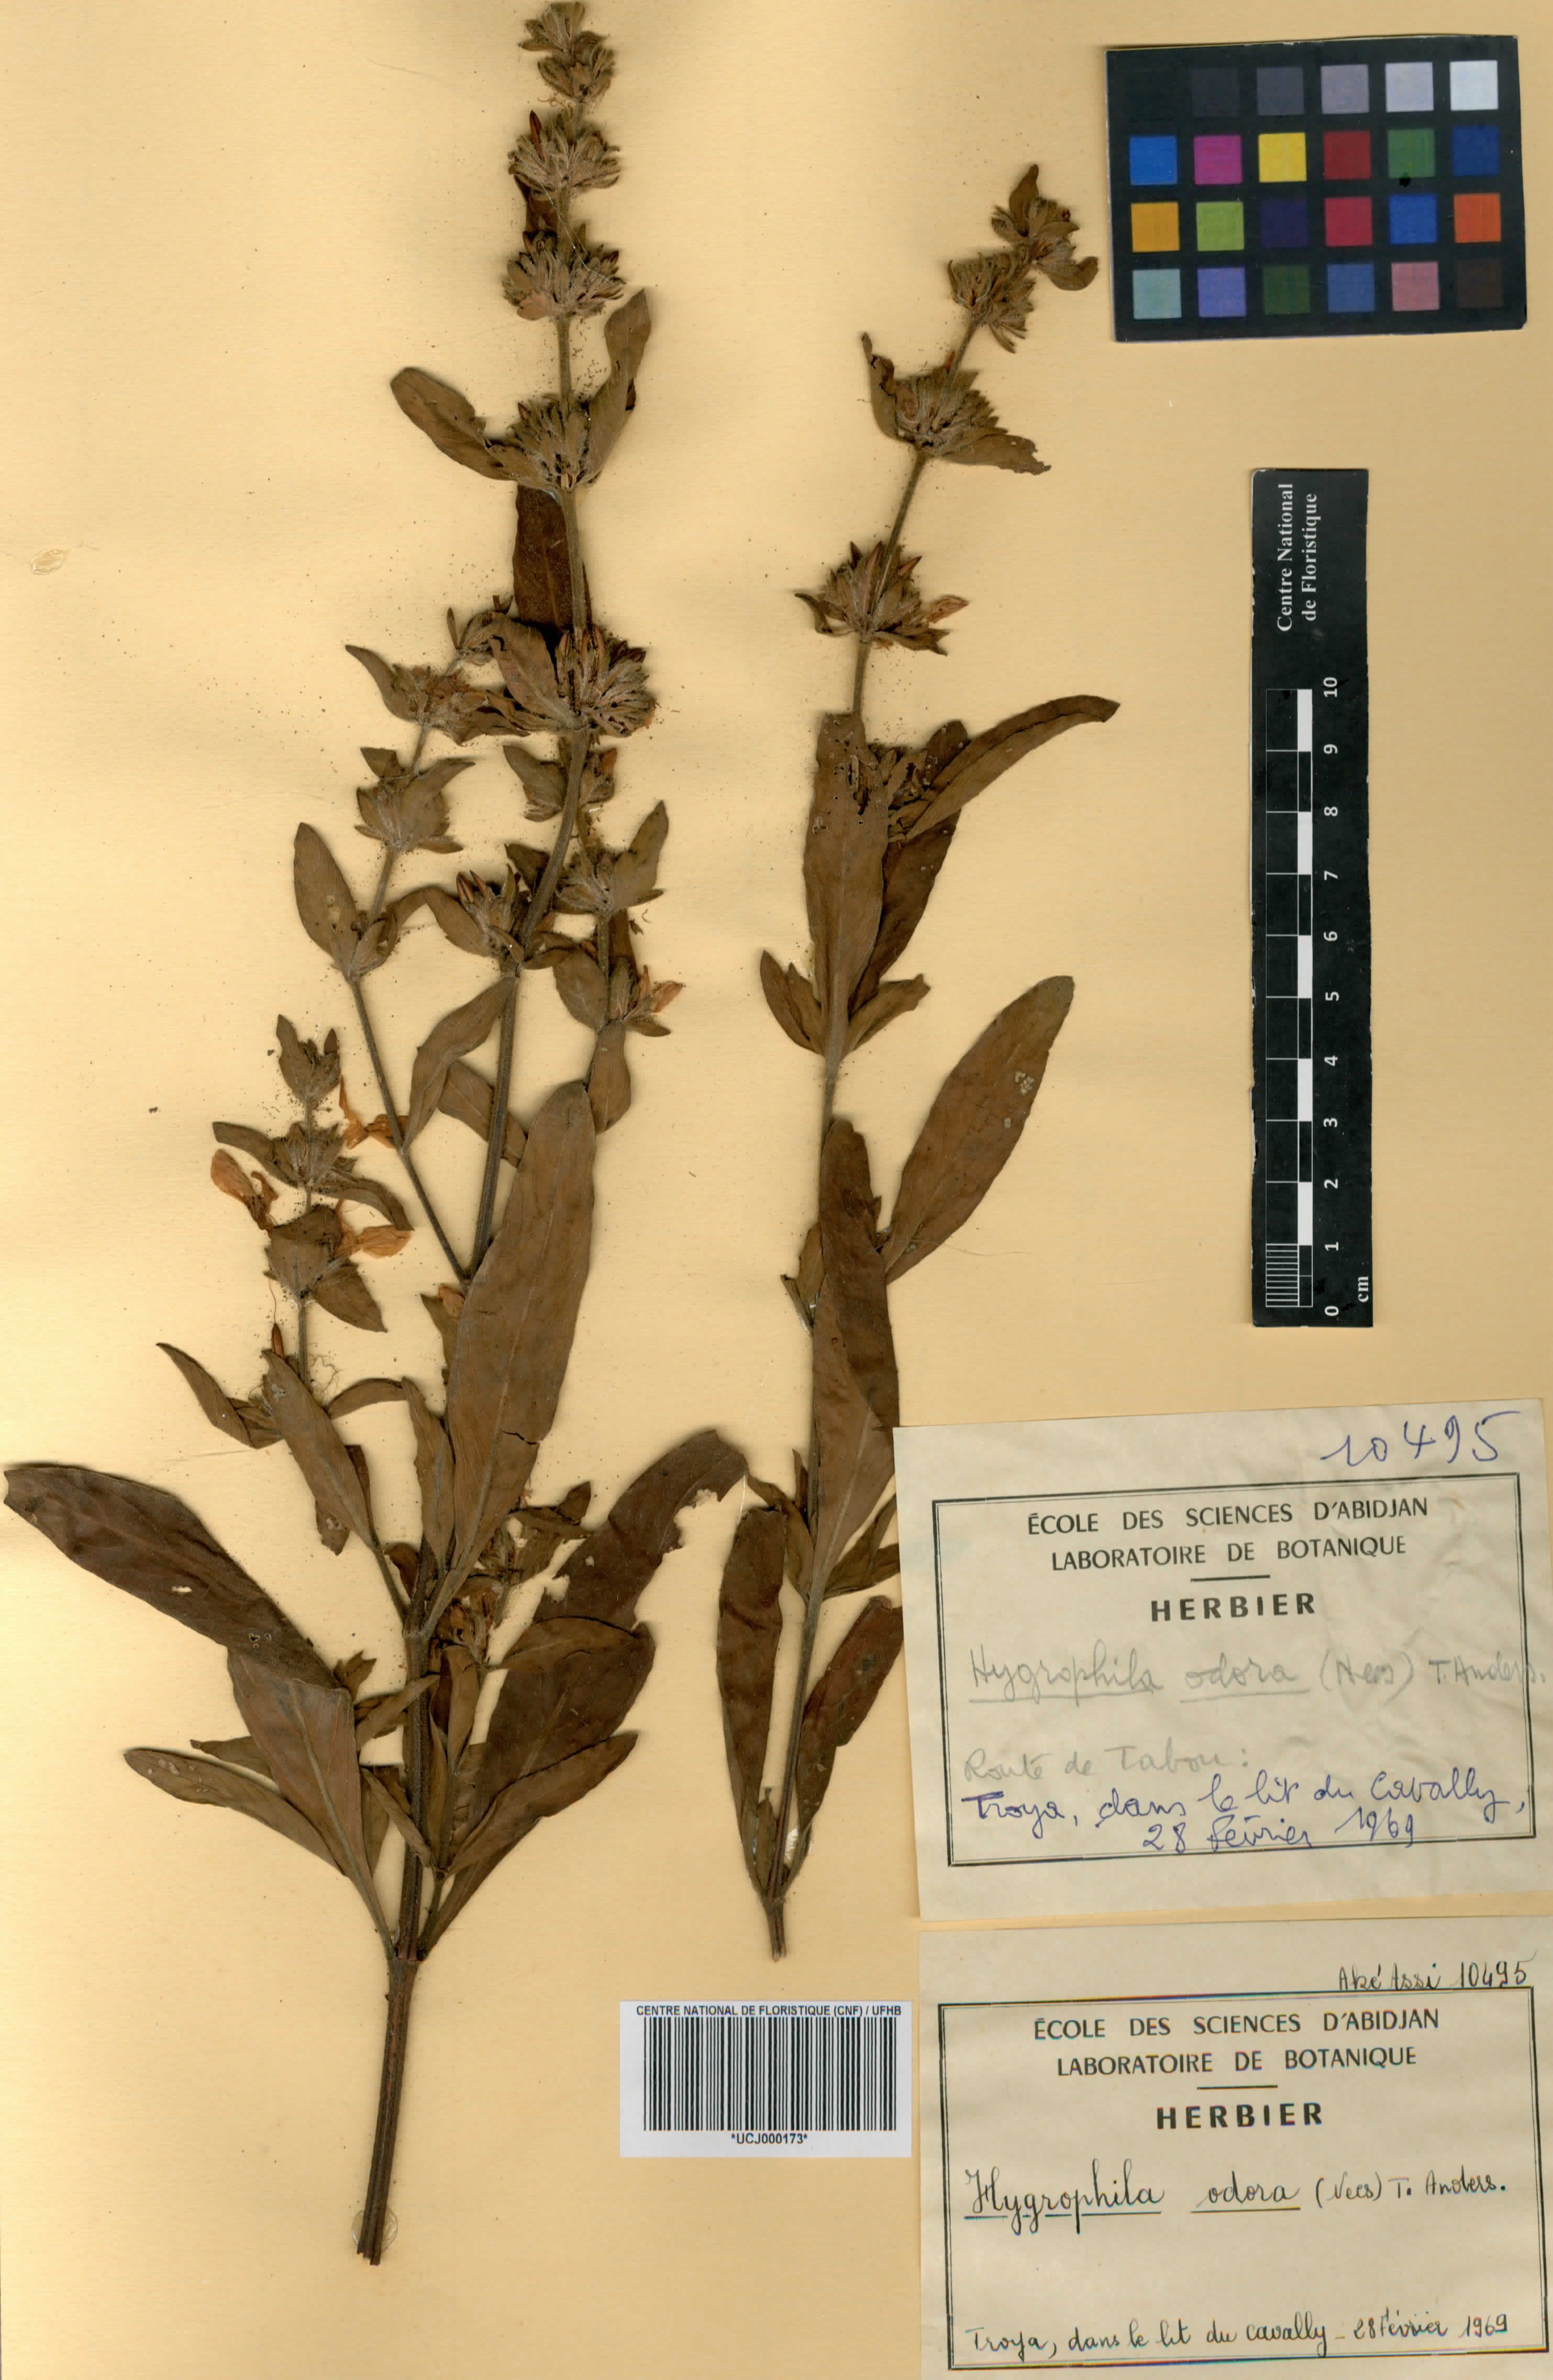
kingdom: Plantae
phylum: Tracheophyta
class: Magnoliopsida
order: Lamiales
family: Acanthaceae
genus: Hygrophila
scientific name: Hygrophila odora
